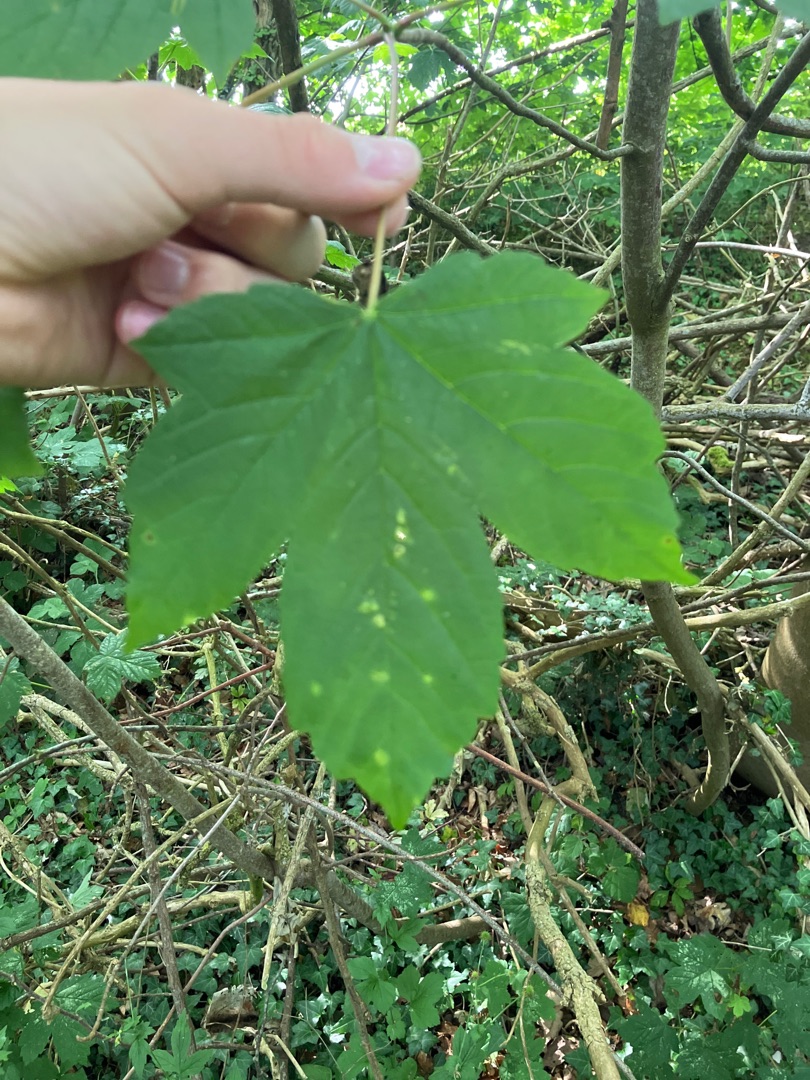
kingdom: Plantae
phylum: Tracheophyta
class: Magnoliopsida
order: Sapindales
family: Sapindaceae
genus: Acer
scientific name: Acer pseudoplatanus
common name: Ahorn
